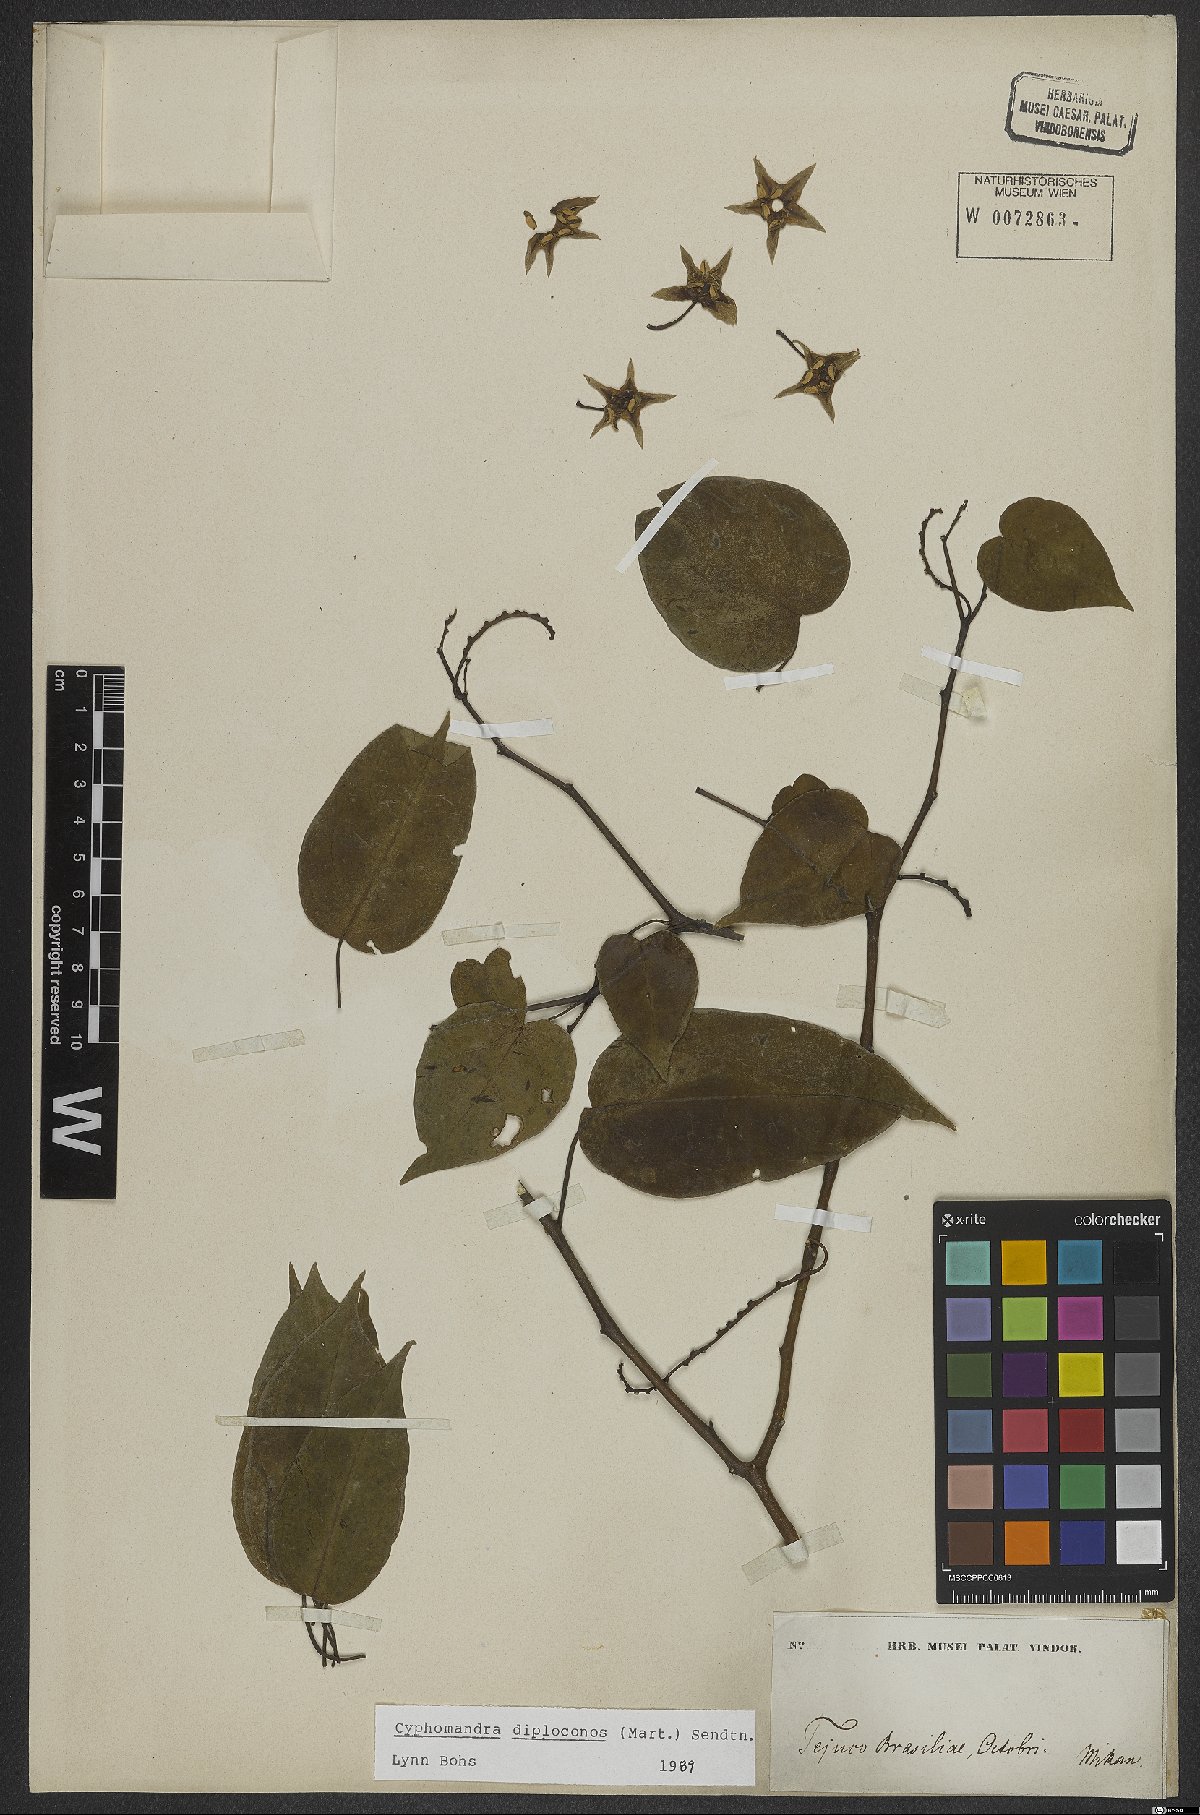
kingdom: Plantae
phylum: Tracheophyta
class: Magnoliopsida
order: Solanales
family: Solanaceae
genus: Solanum
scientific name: Solanum diploconos
